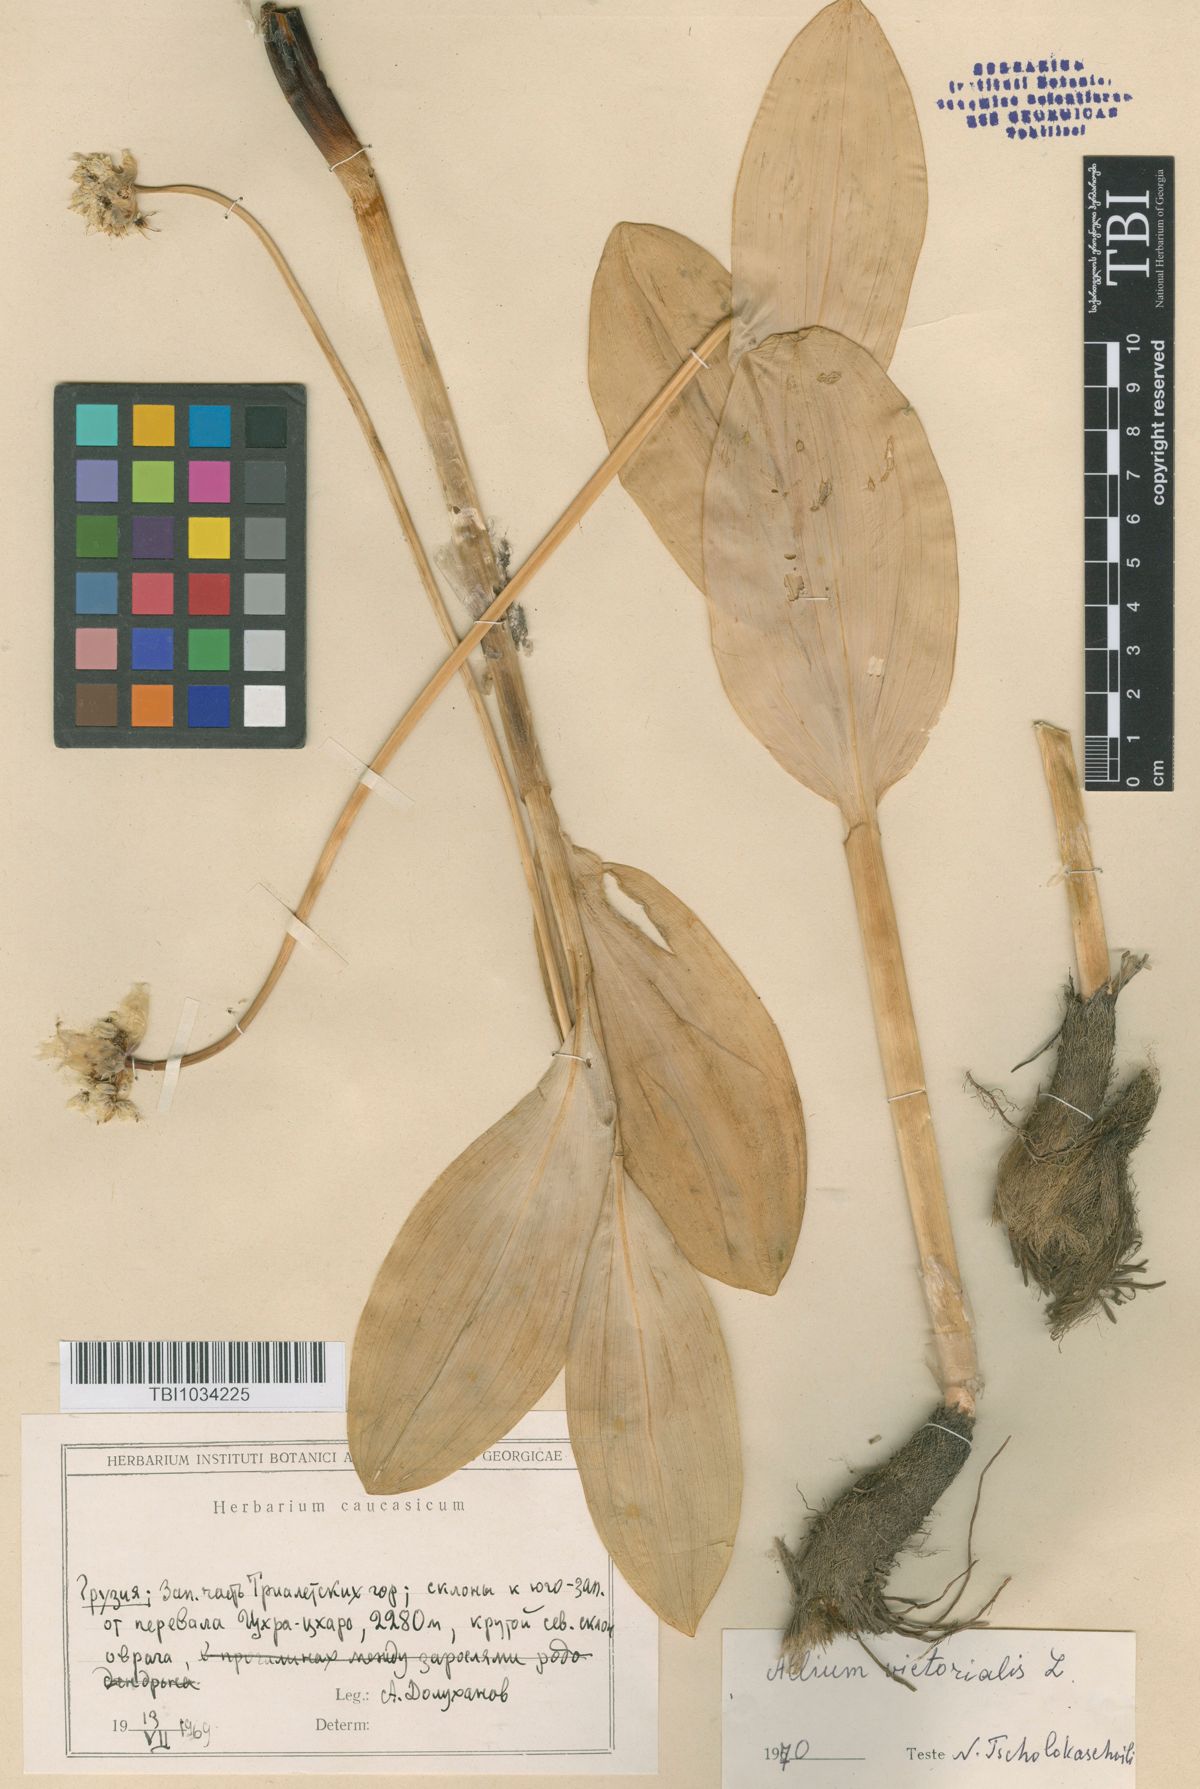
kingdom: Plantae
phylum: Tracheophyta
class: Liliopsida
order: Asparagales
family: Amaryllidaceae
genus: Allium
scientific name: Allium victorialis
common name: Alpine leek
